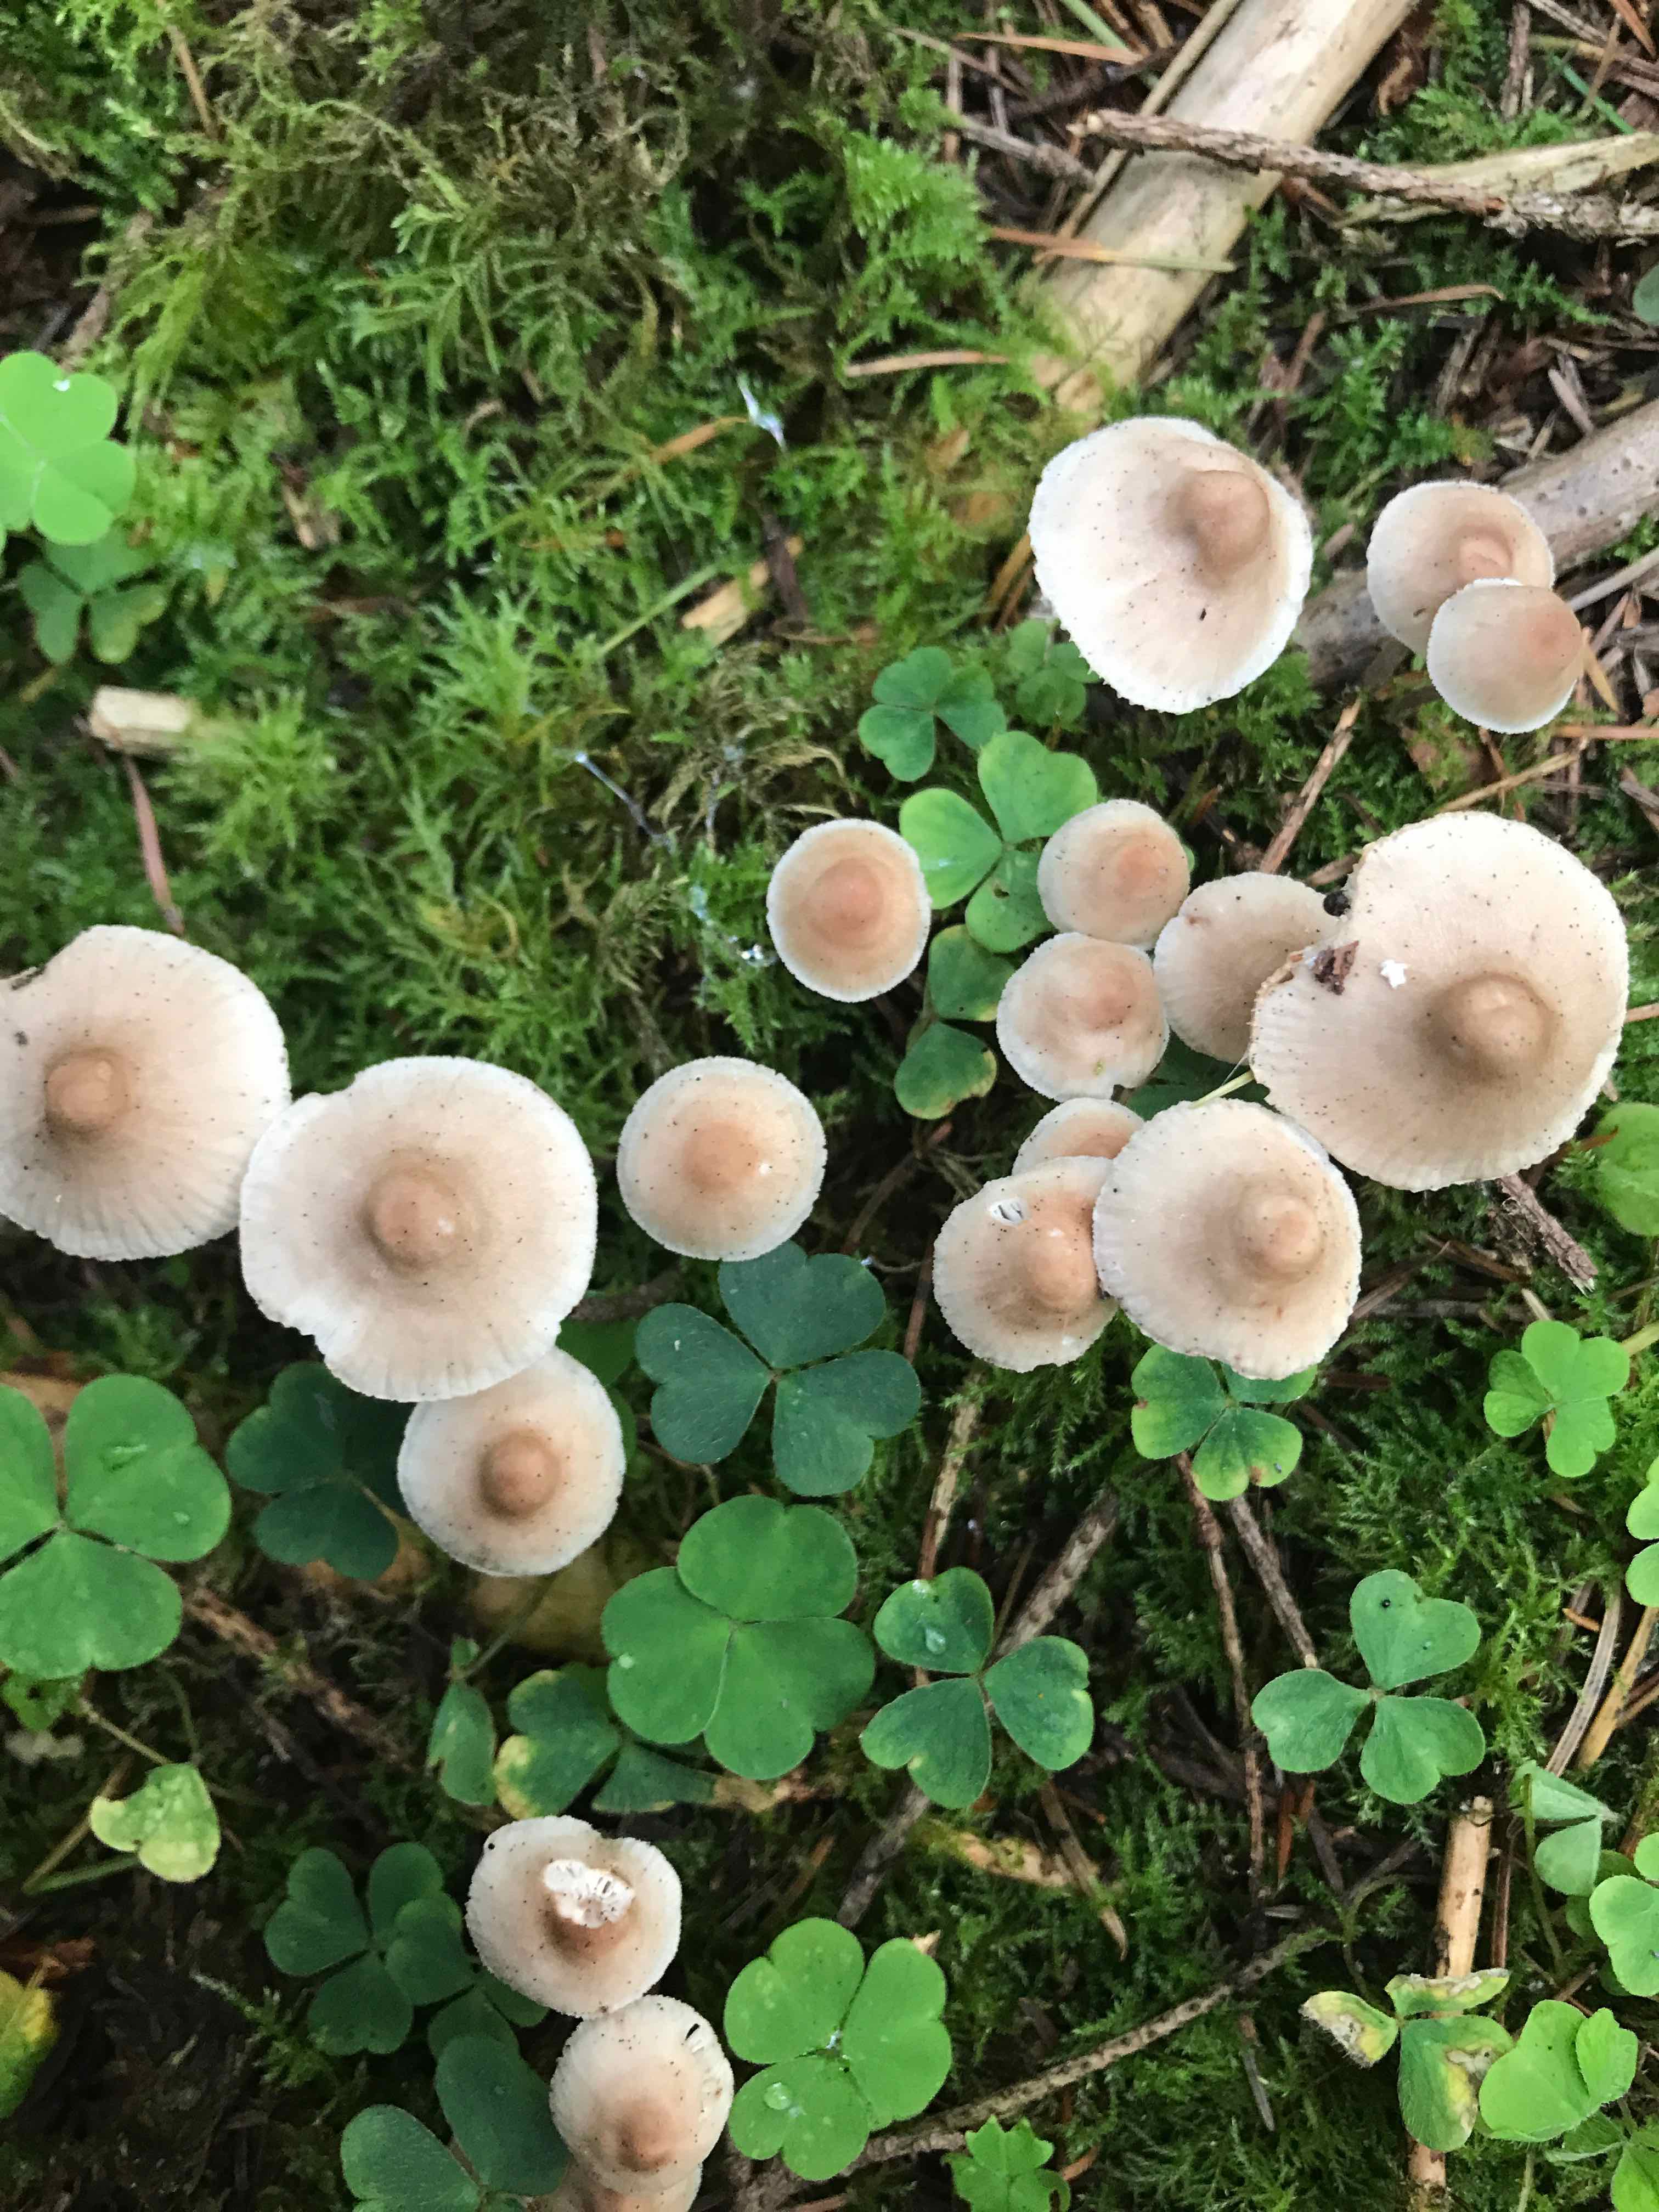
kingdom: Fungi
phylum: Basidiomycota
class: Agaricomycetes
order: Agaricales
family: Mycenaceae
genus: Mycena
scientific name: Mycena zephirus
